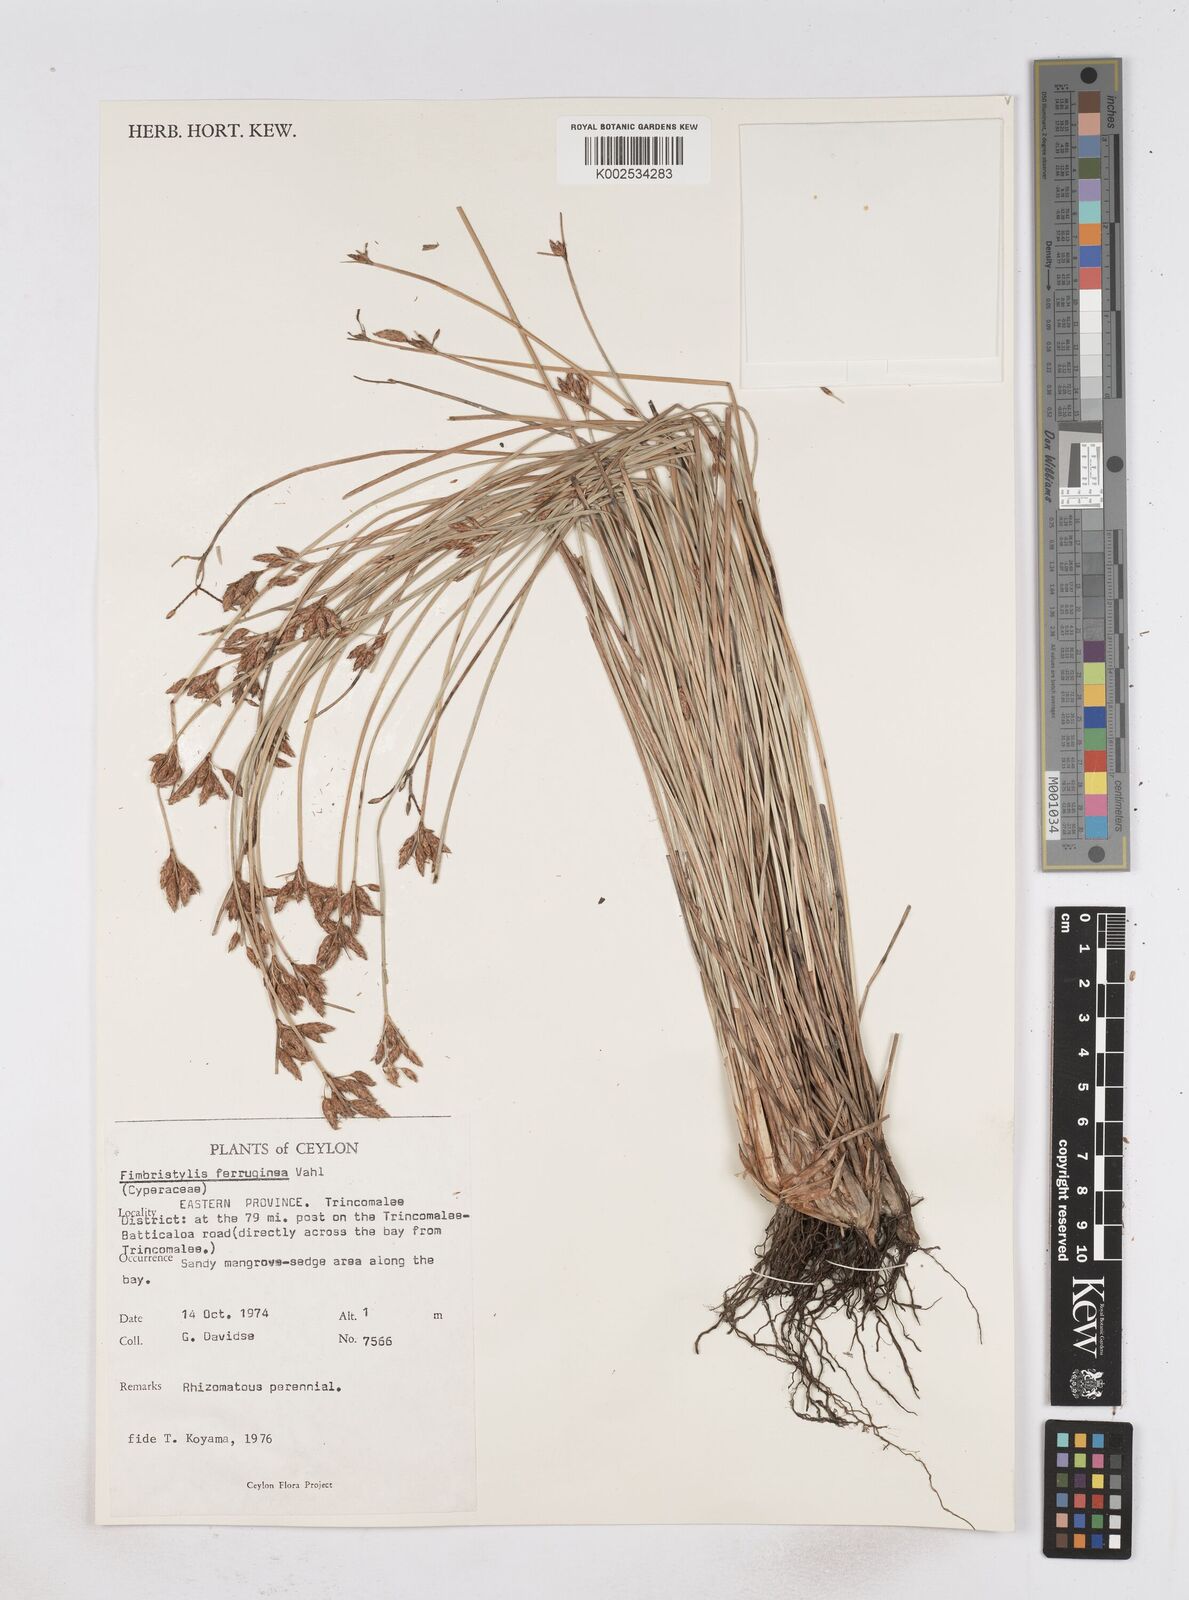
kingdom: Plantae
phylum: Tracheophyta
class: Liliopsida
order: Poales
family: Cyperaceae
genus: Fimbristylis
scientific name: Fimbristylis ferruginea
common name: West indian fimbry
